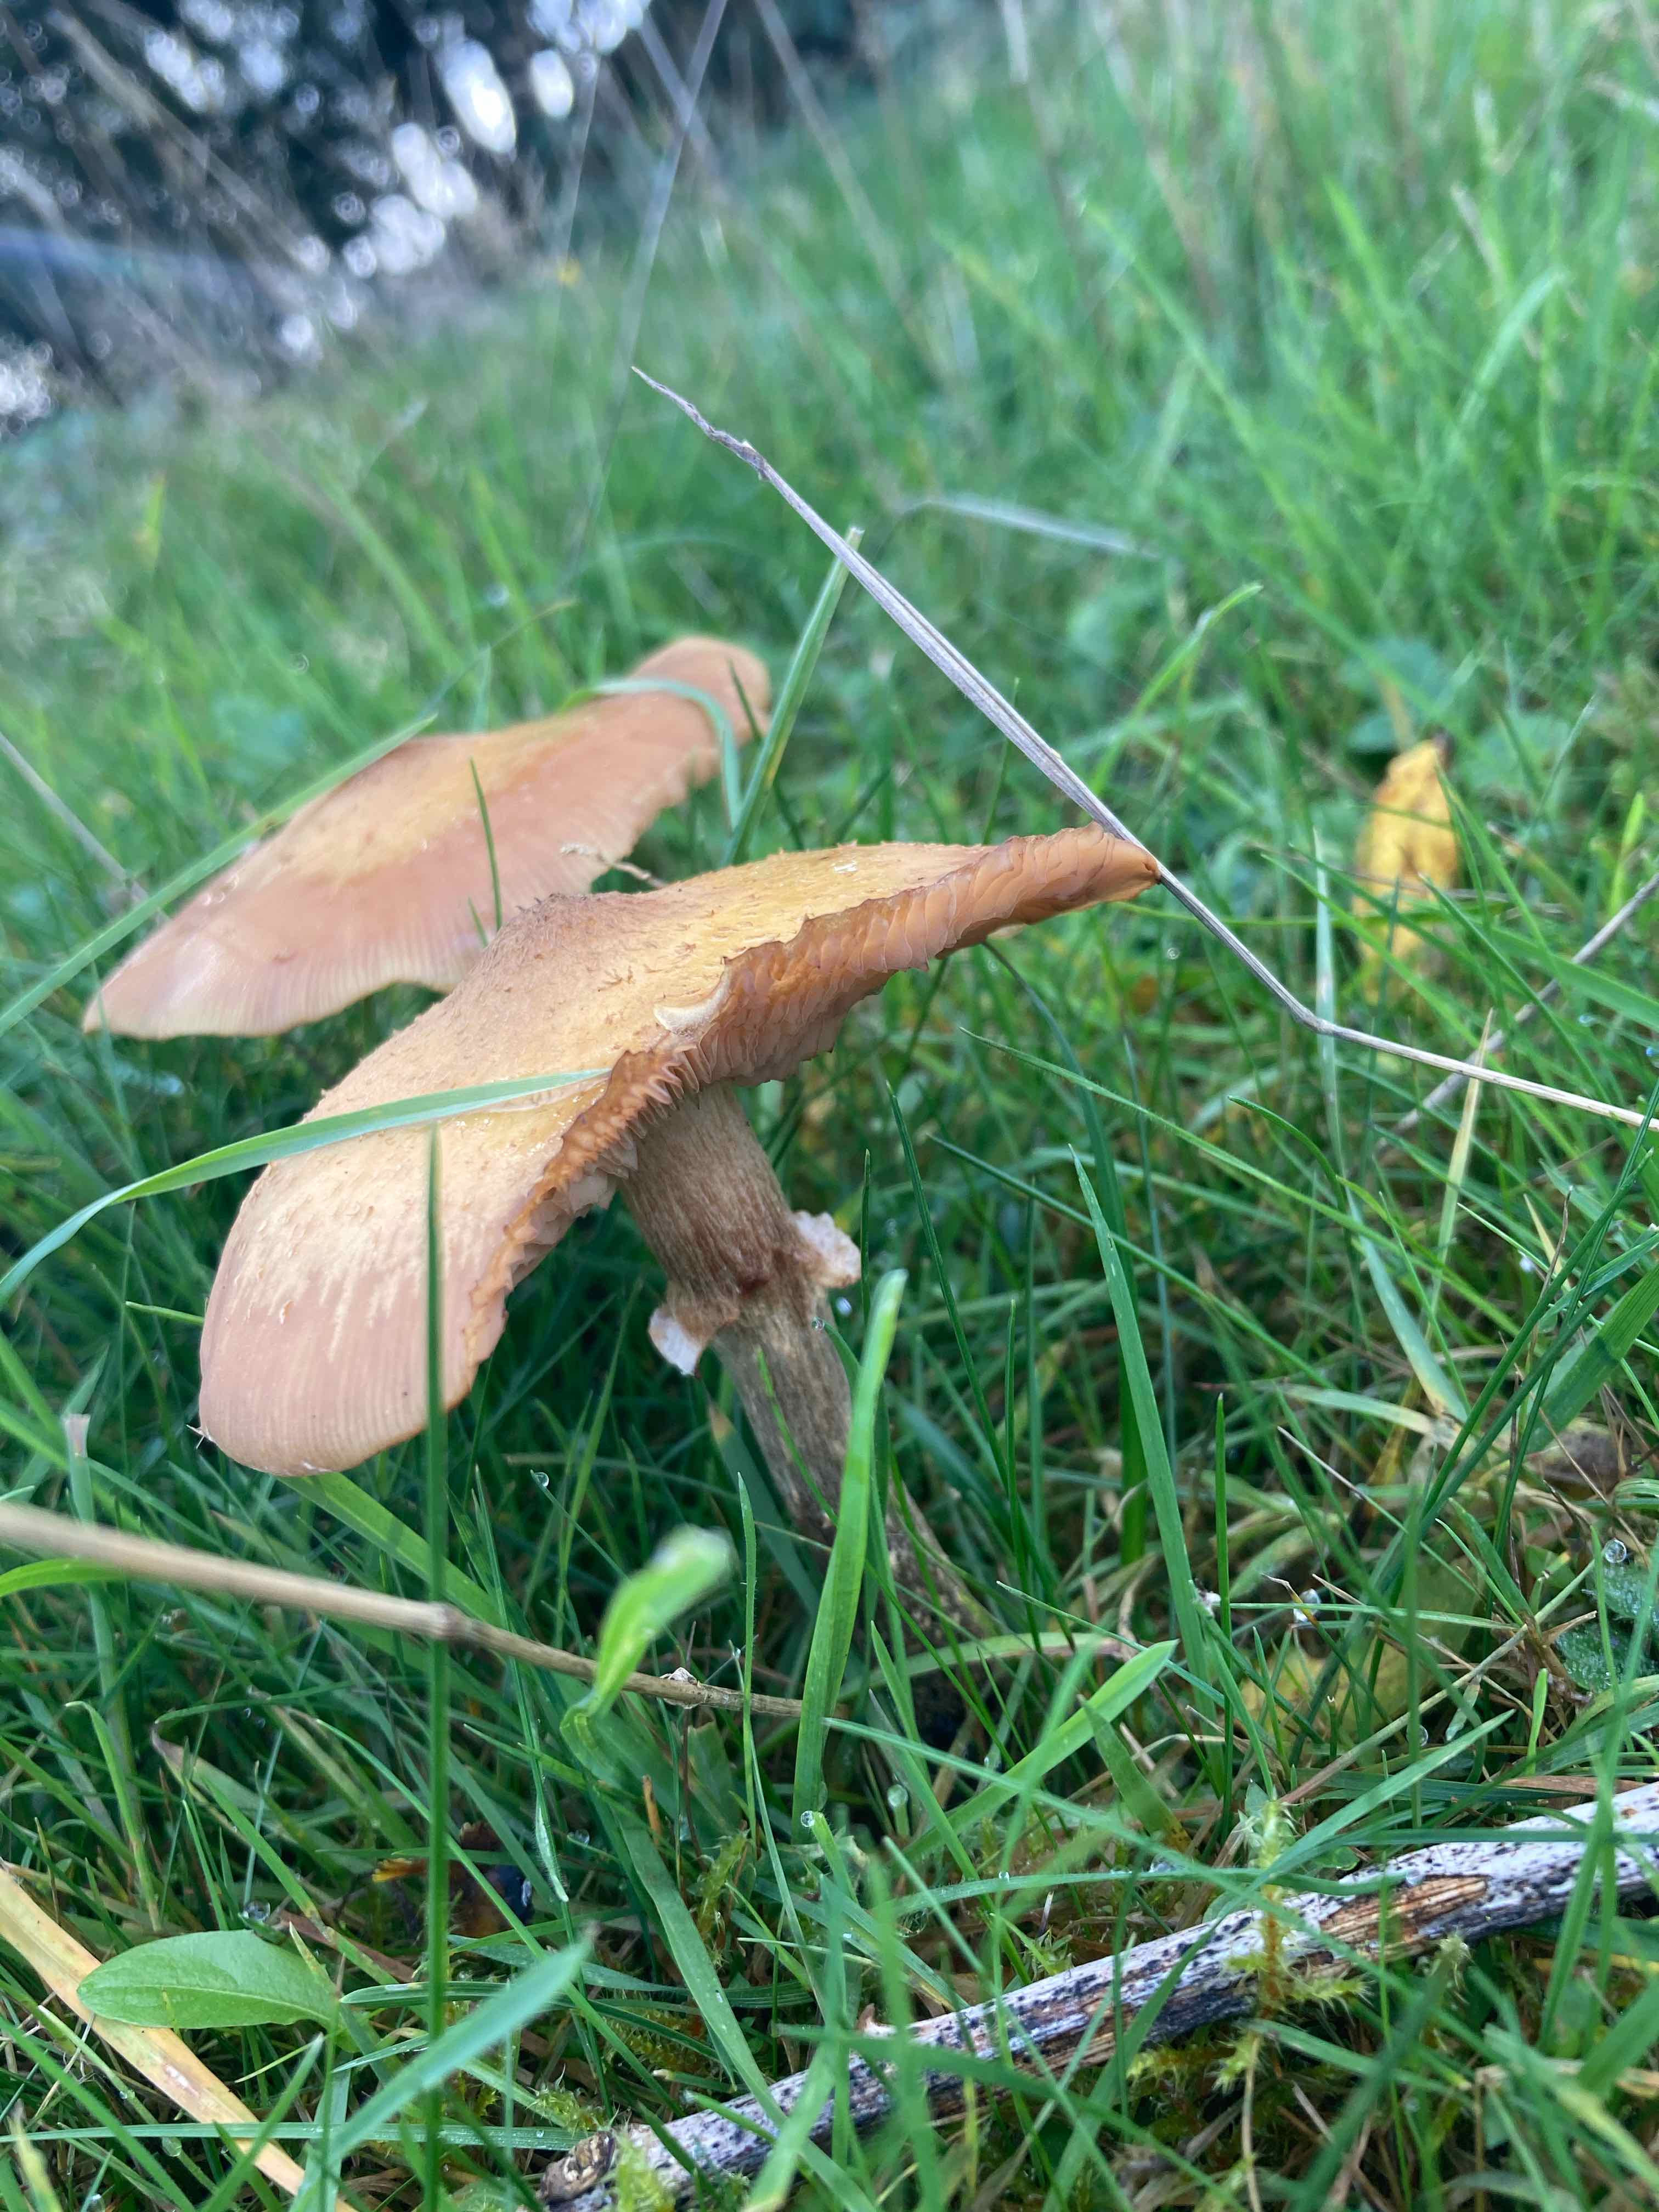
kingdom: Fungi
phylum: Basidiomycota
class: Agaricomycetes
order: Agaricales
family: Physalacriaceae
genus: Armillaria
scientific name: Armillaria
